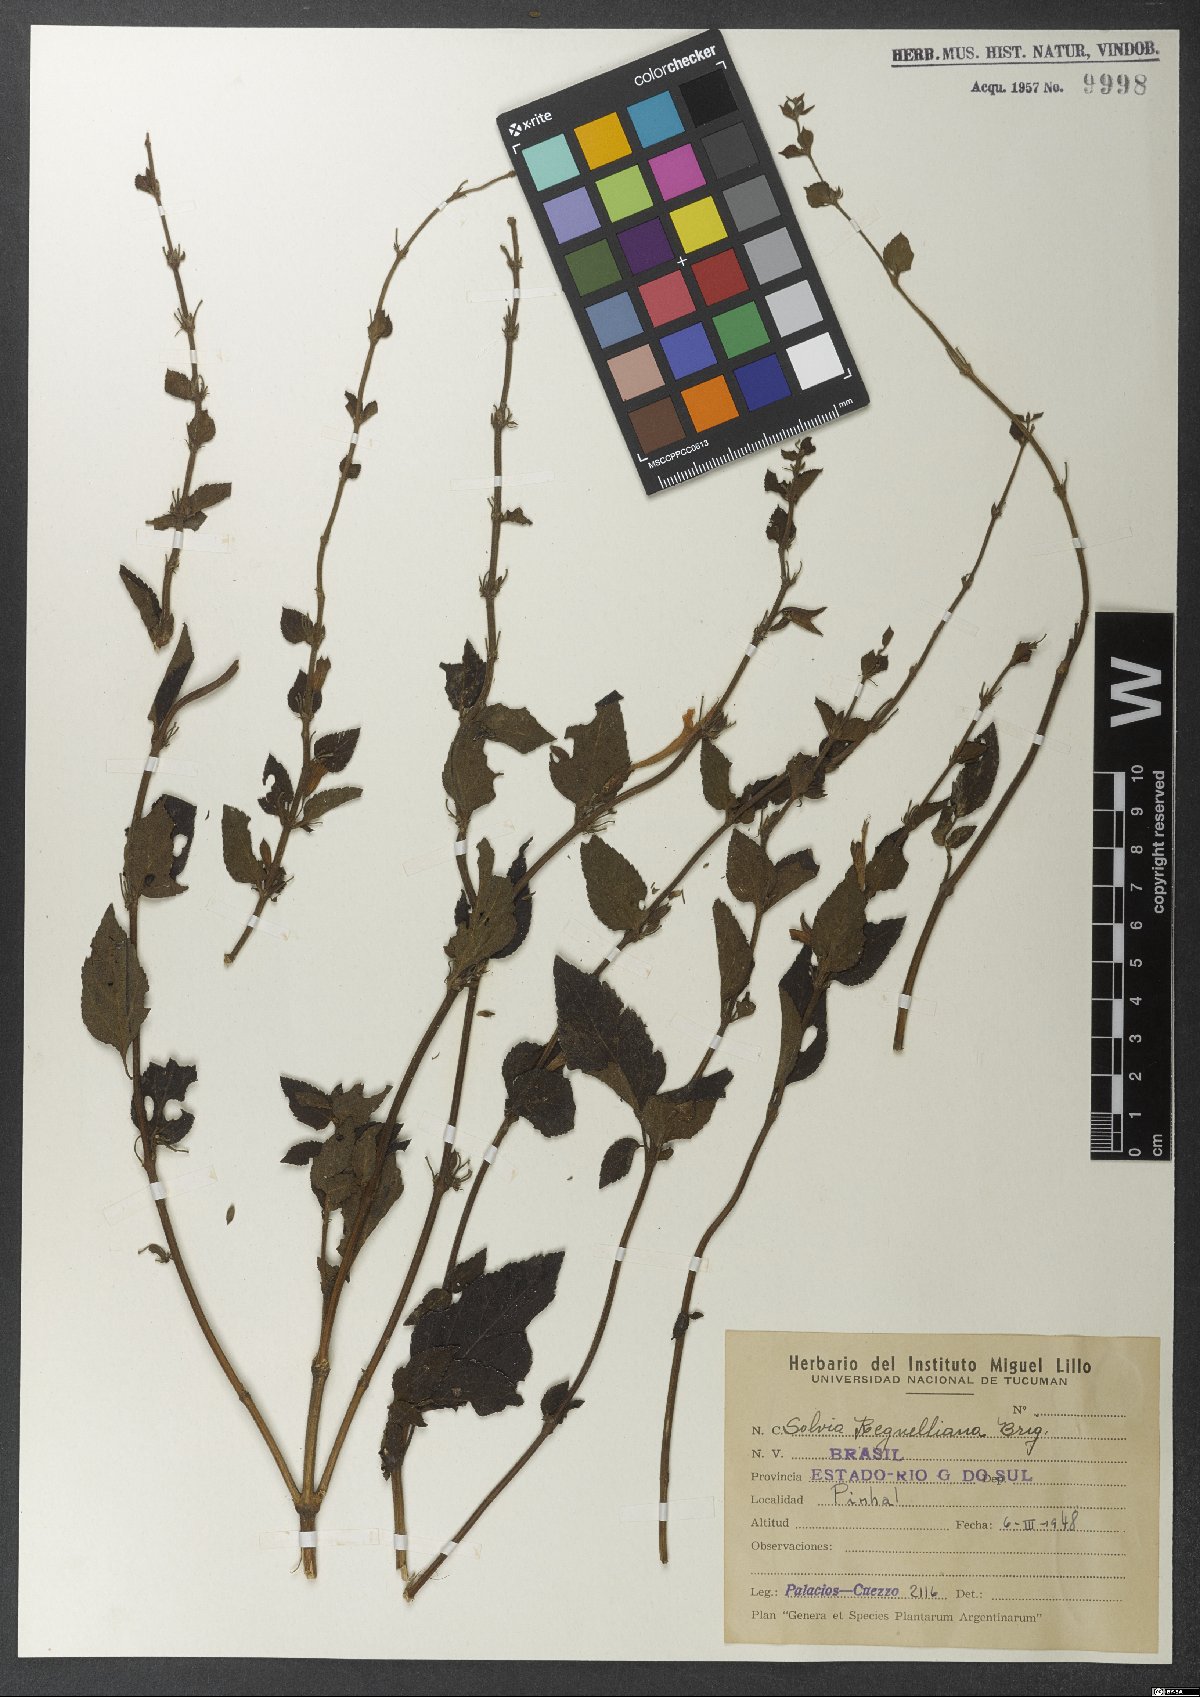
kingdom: Plantae
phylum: Tracheophyta
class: Magnoliopsida
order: Lamiales
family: Lamiaceae
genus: Salvia
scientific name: Salvia regnelliana
